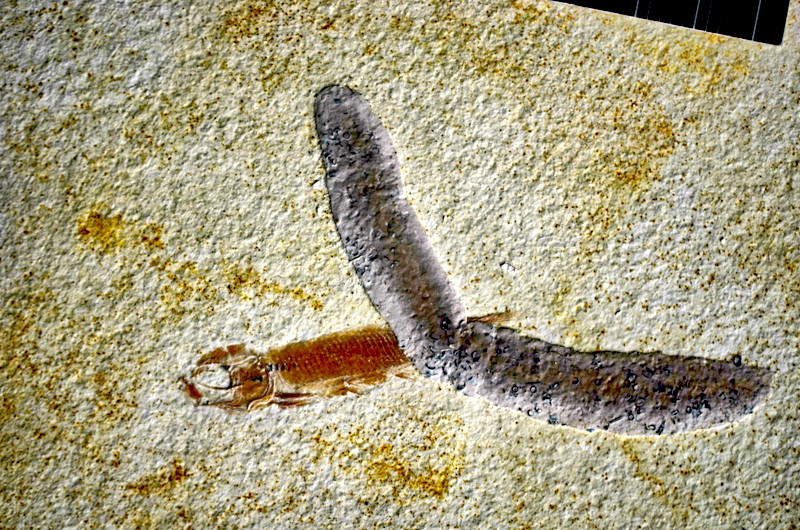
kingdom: Animalia
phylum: Chordata
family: Pleuropholidae
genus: Pleuropholis
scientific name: Pleuropholis
